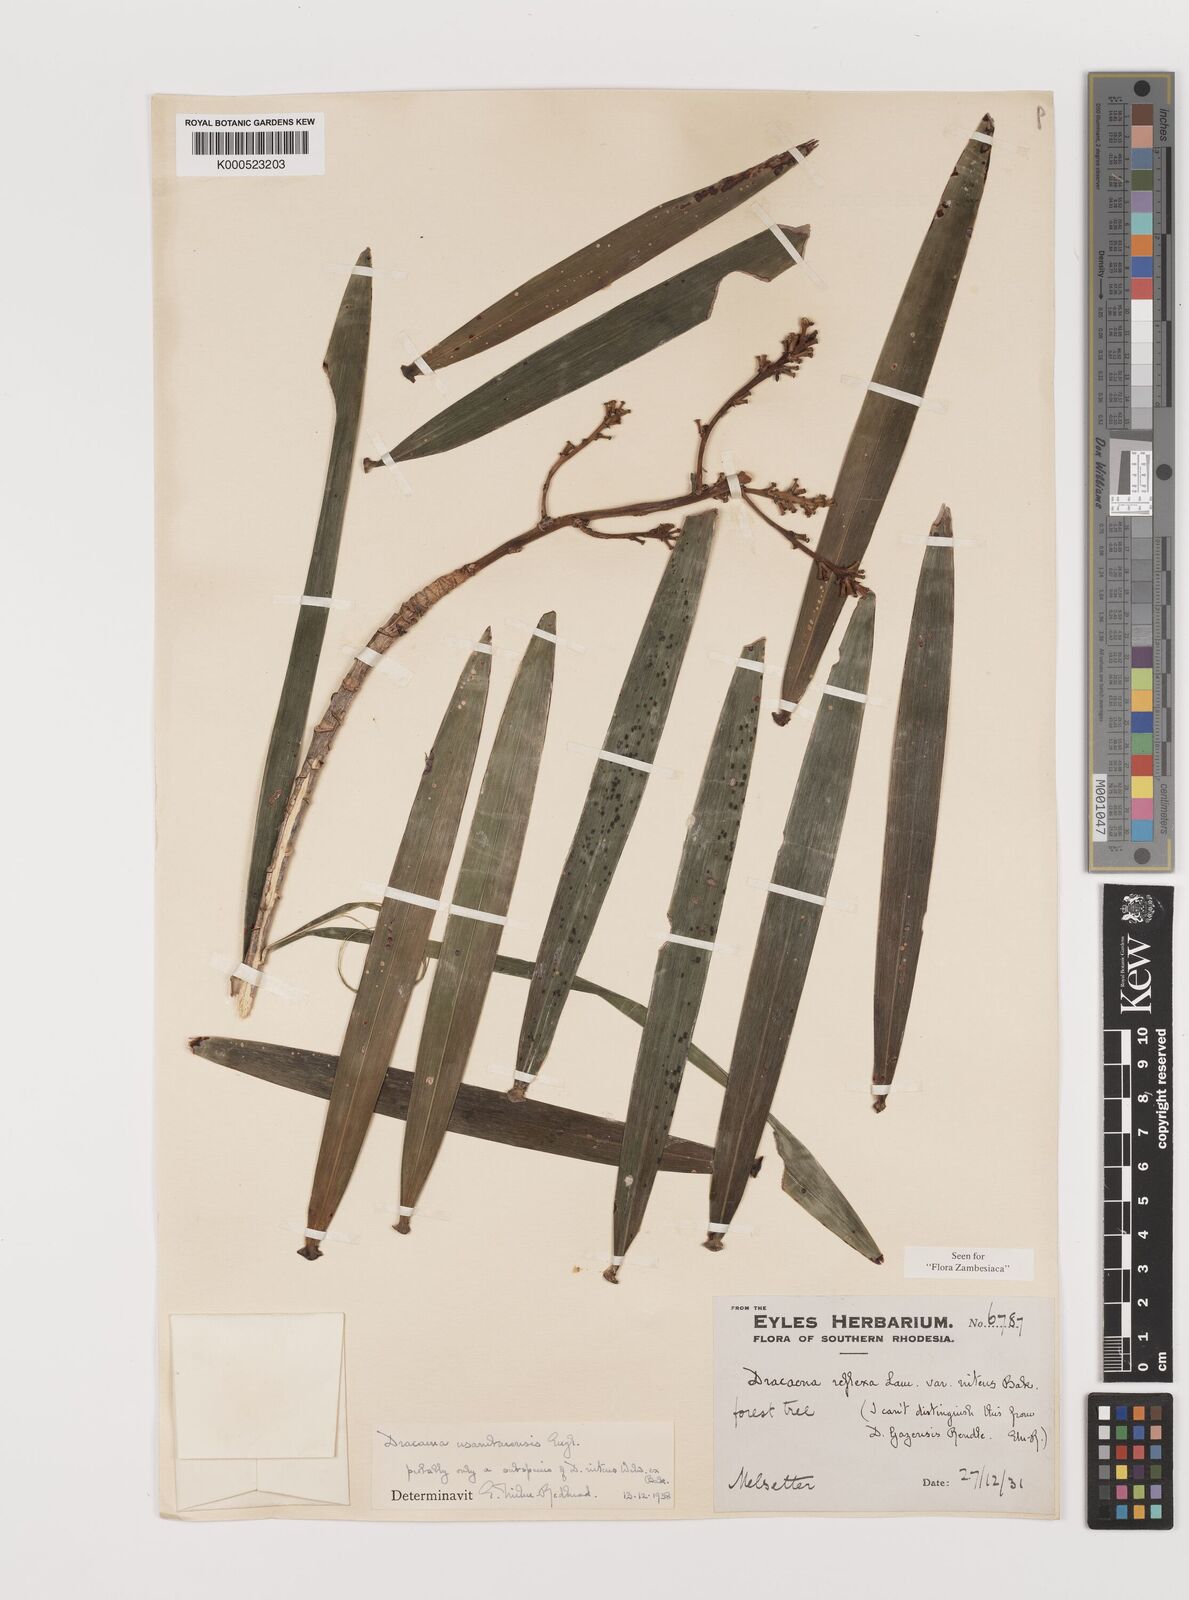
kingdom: Plantae
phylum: Tracheophyta
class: Liliopsida
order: Asparagales
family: Asparagaceae
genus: Dracaena
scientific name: Dracaena usambarensis
